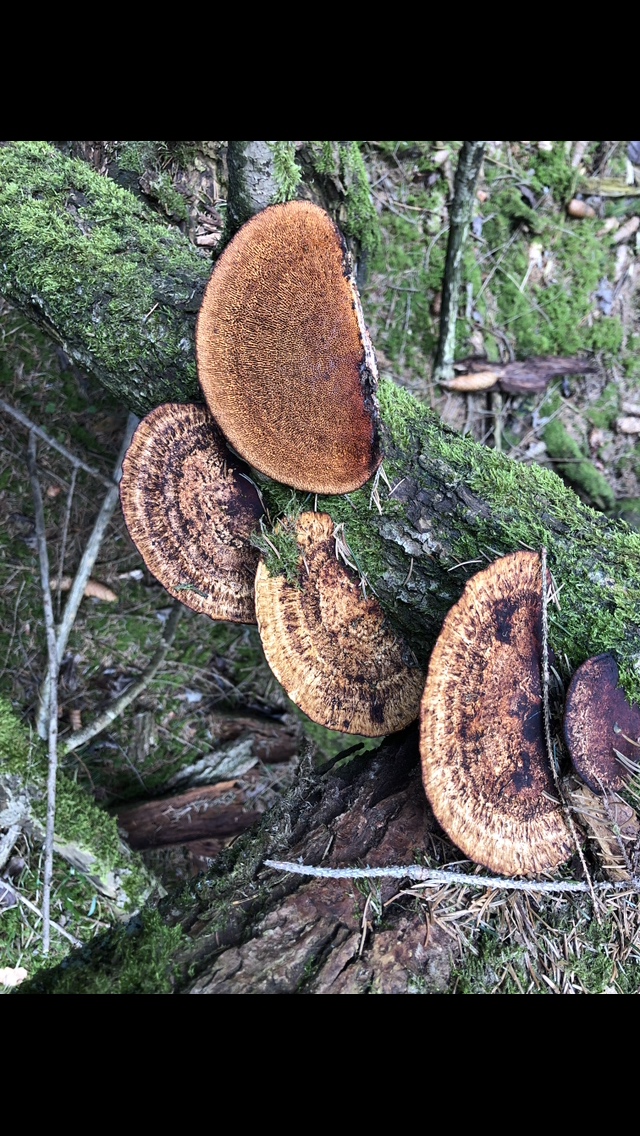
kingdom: Fungi
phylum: Basidiomycota
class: Agaricomycetes
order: Polyporales
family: Polyporaceae
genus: Daedaleopsis
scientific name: Daedaleopsis confragosa
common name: rødmende læderporesvamp
